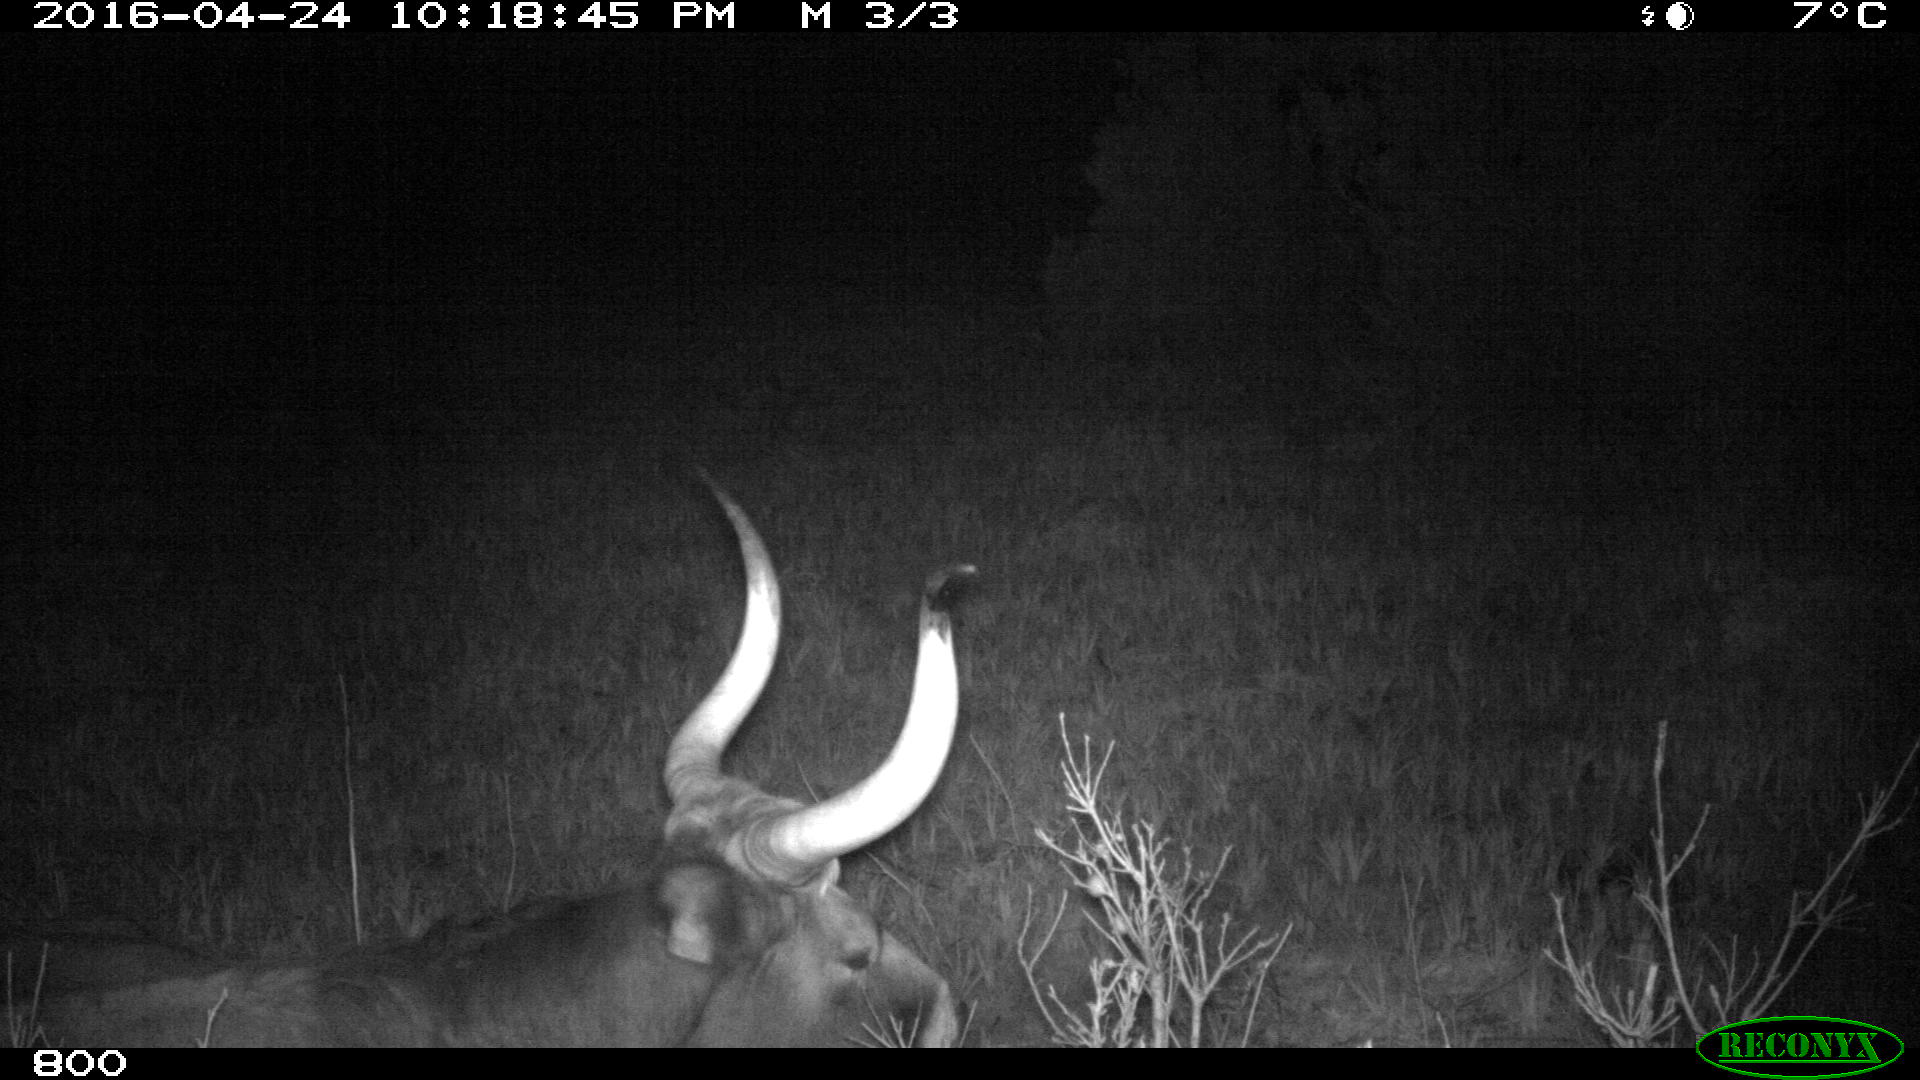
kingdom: Animalia
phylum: Chordata
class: Mammalia
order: Artiodactyla
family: Bovidae
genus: Bos
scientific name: Bos taurus
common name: Domesticated cattle
